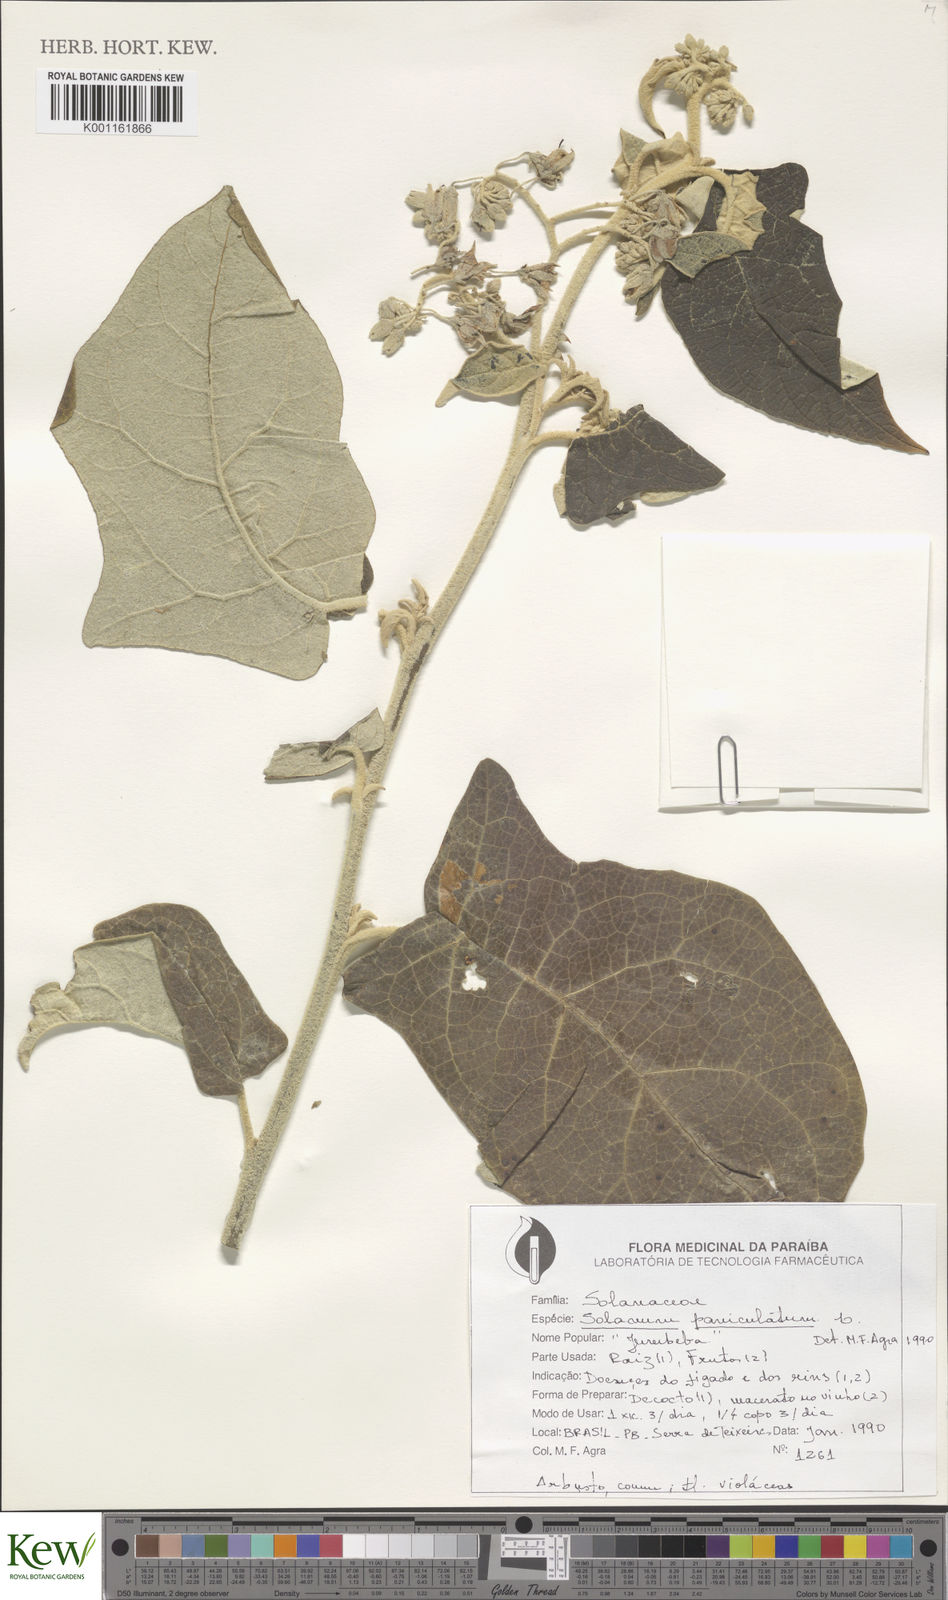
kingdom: Plantae
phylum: Tracheophyta
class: Magnoliopsida
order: Solanales
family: Solanaceae
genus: Solanum
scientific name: Solanum paniculatum
